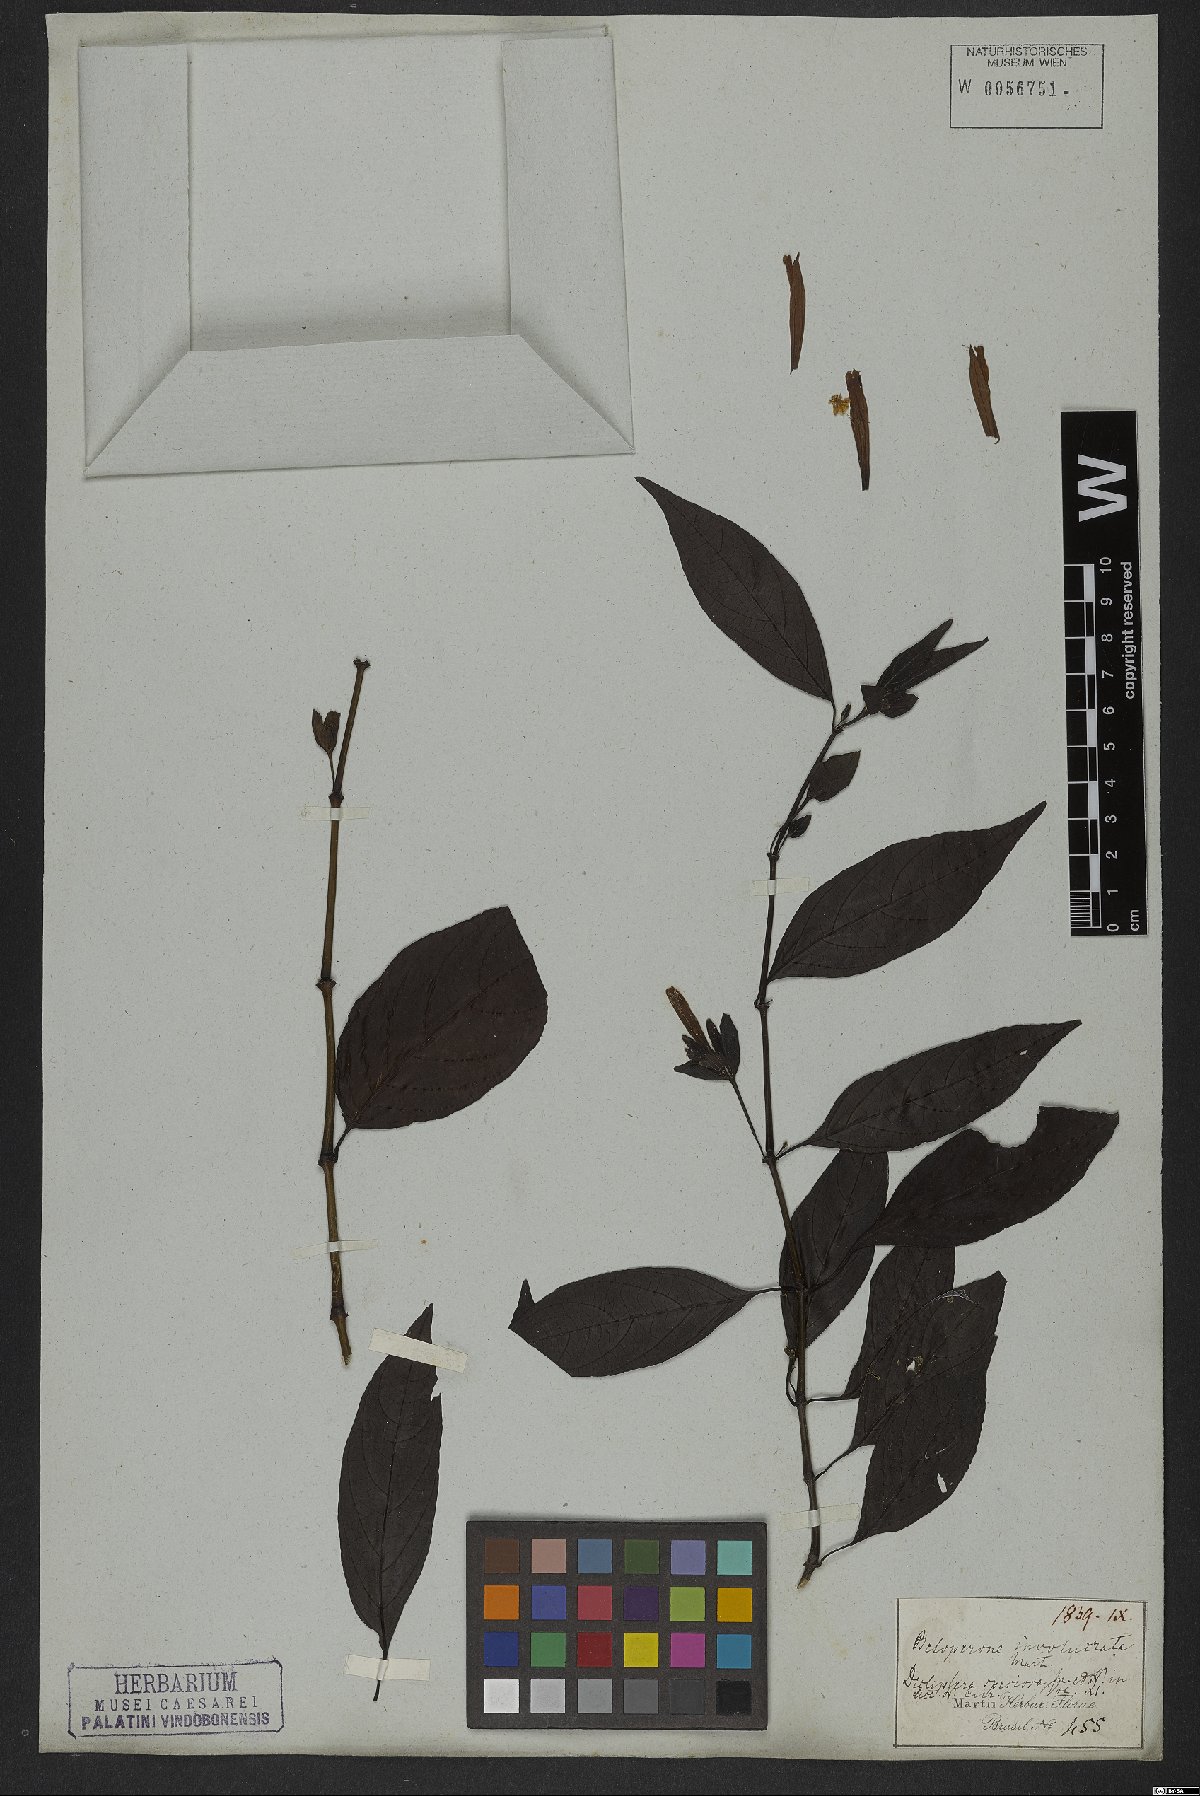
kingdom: Plantae
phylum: Tracheophyta
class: Magnoliopsida
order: Lamiales
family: Acanthaceae
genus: Justicia
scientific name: Justicia involucrata
